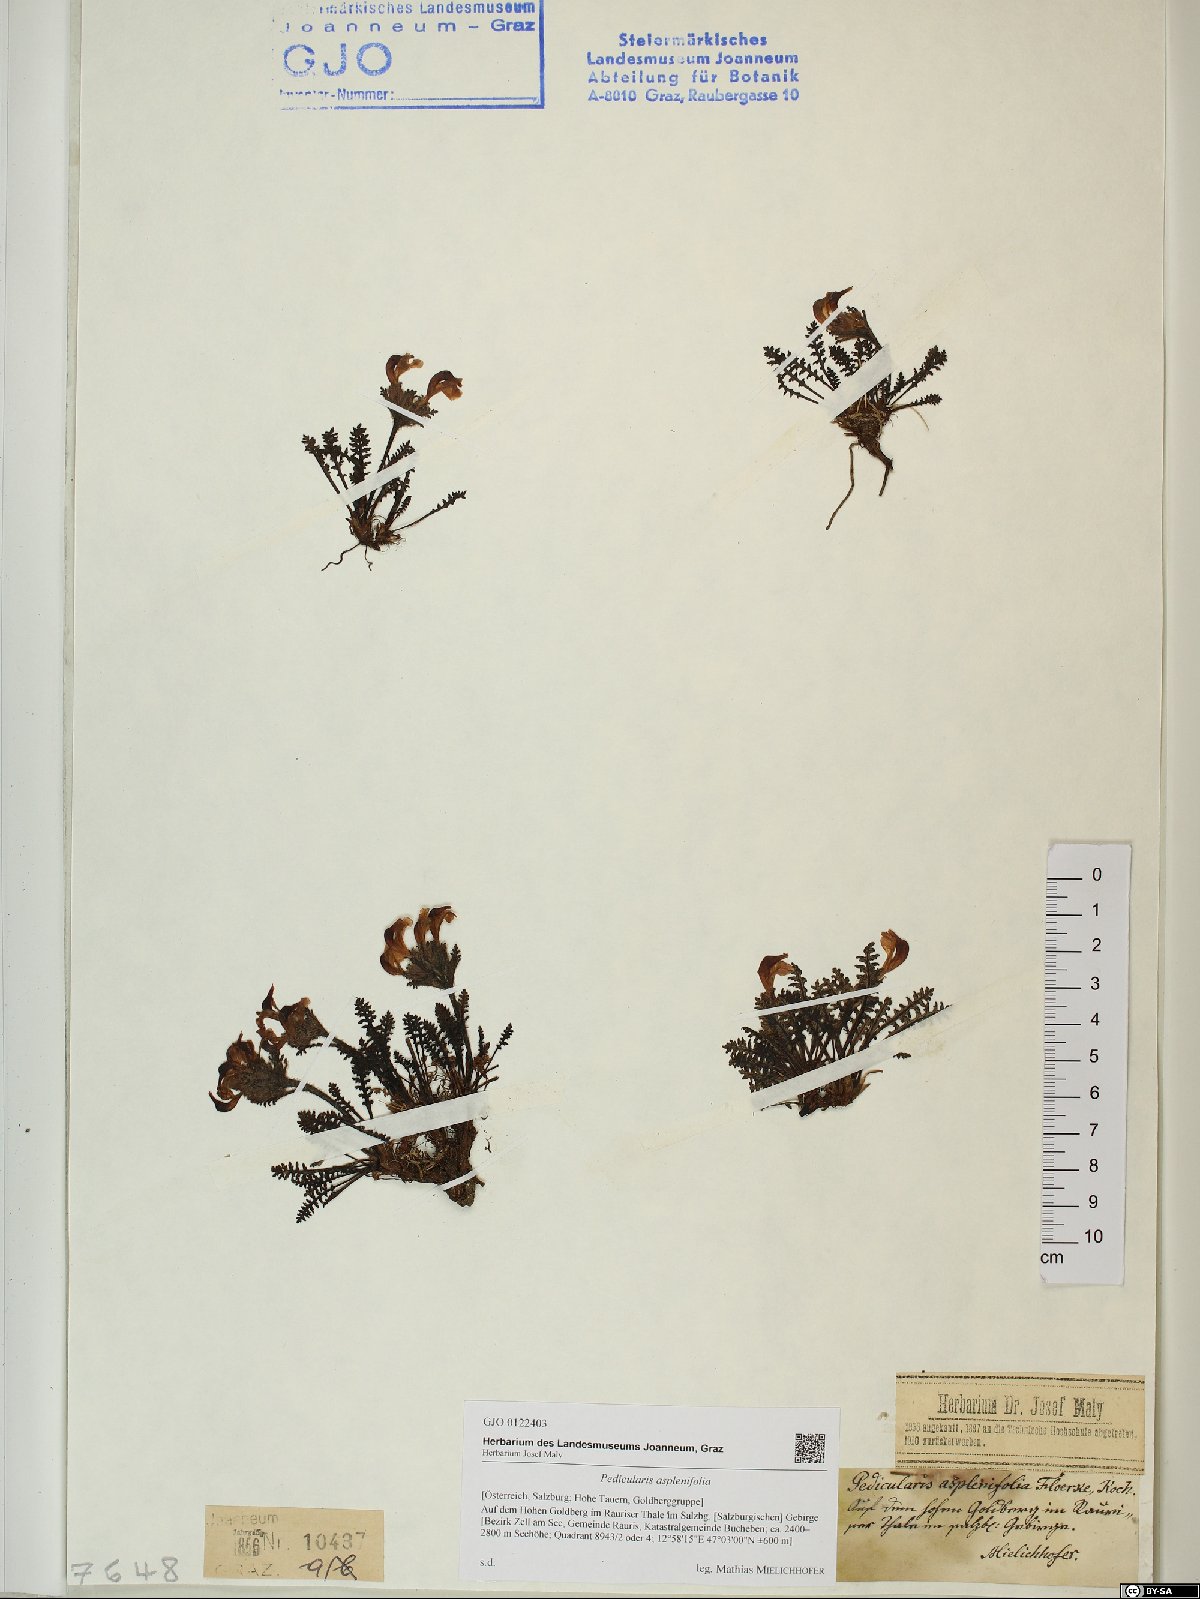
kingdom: Plantae
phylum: Tracheophyta
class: Magnoliopsida
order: Lamiales
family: Orobanchaceae
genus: Pedicularis
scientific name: Pedicularis asplenifolia
